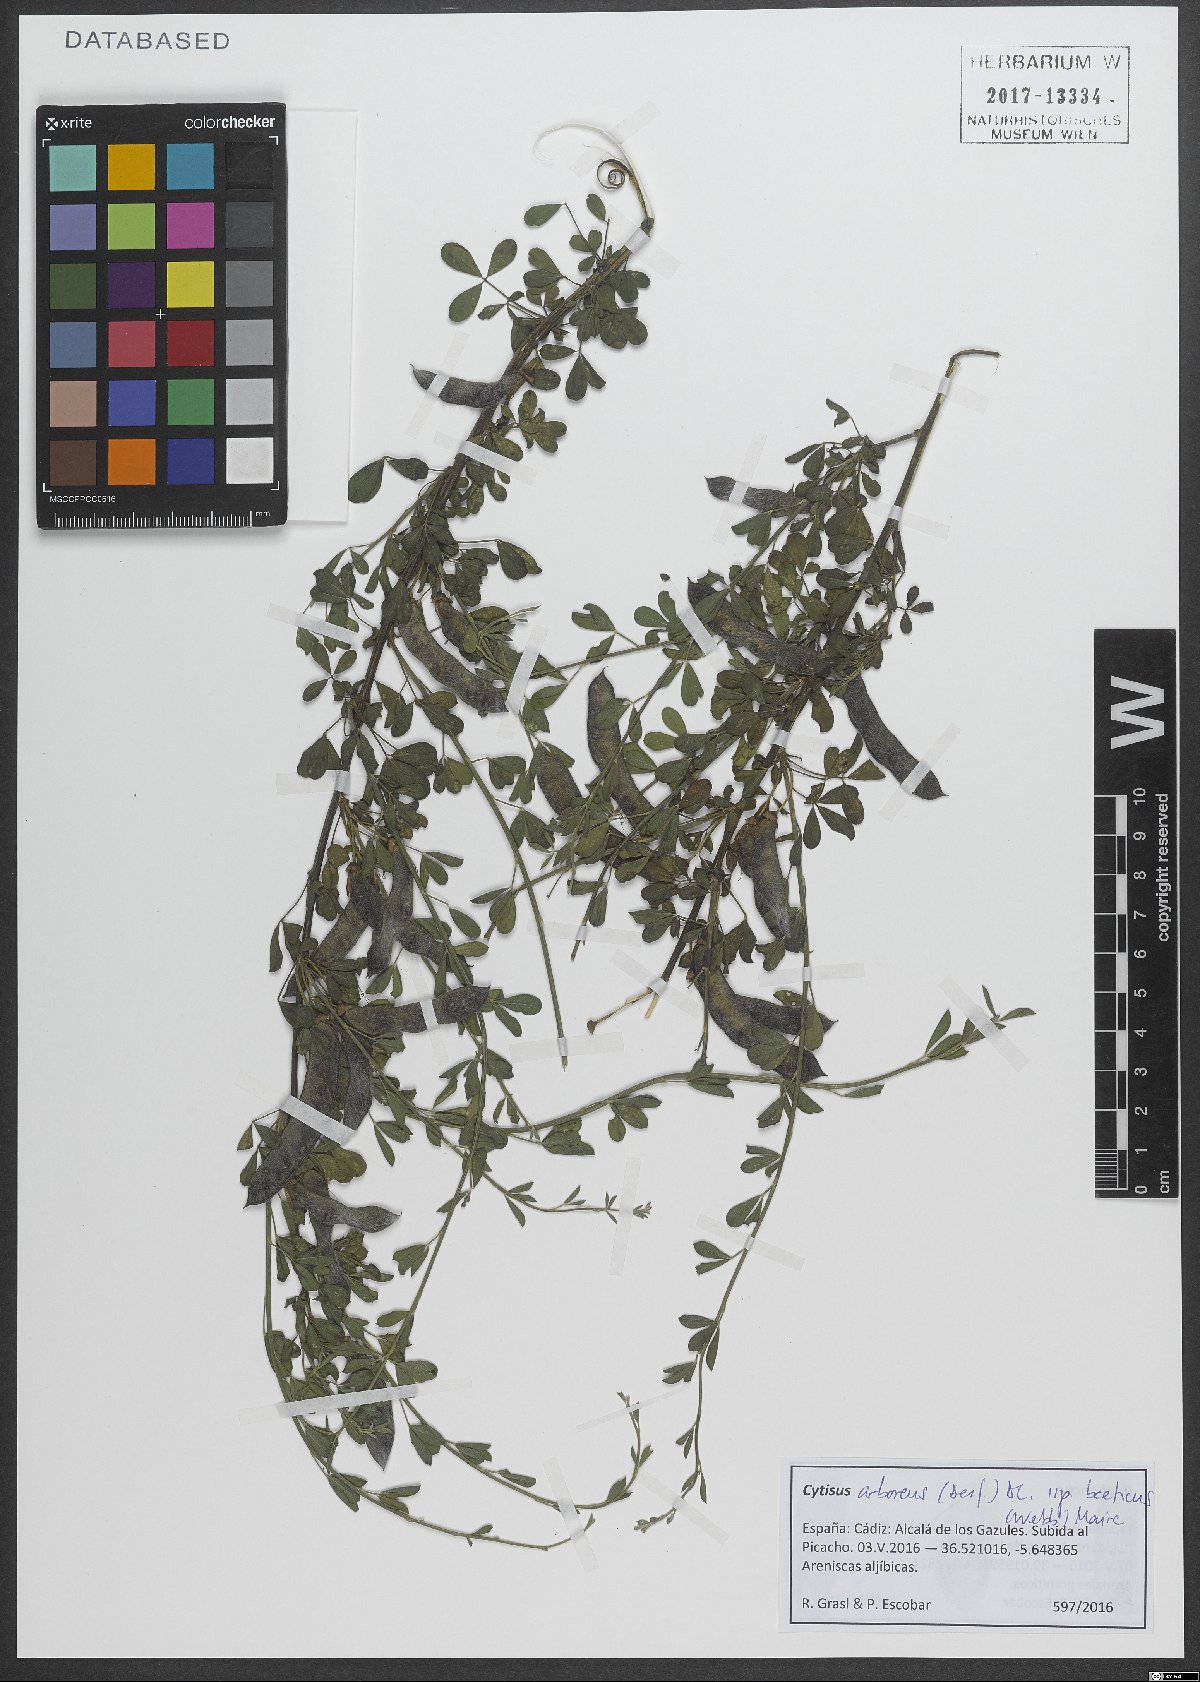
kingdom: Plantae
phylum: Tracheophyta
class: Magnoliopsida
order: Fabales
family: Fabaceae
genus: Cytisus
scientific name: Cytisus arboreus
